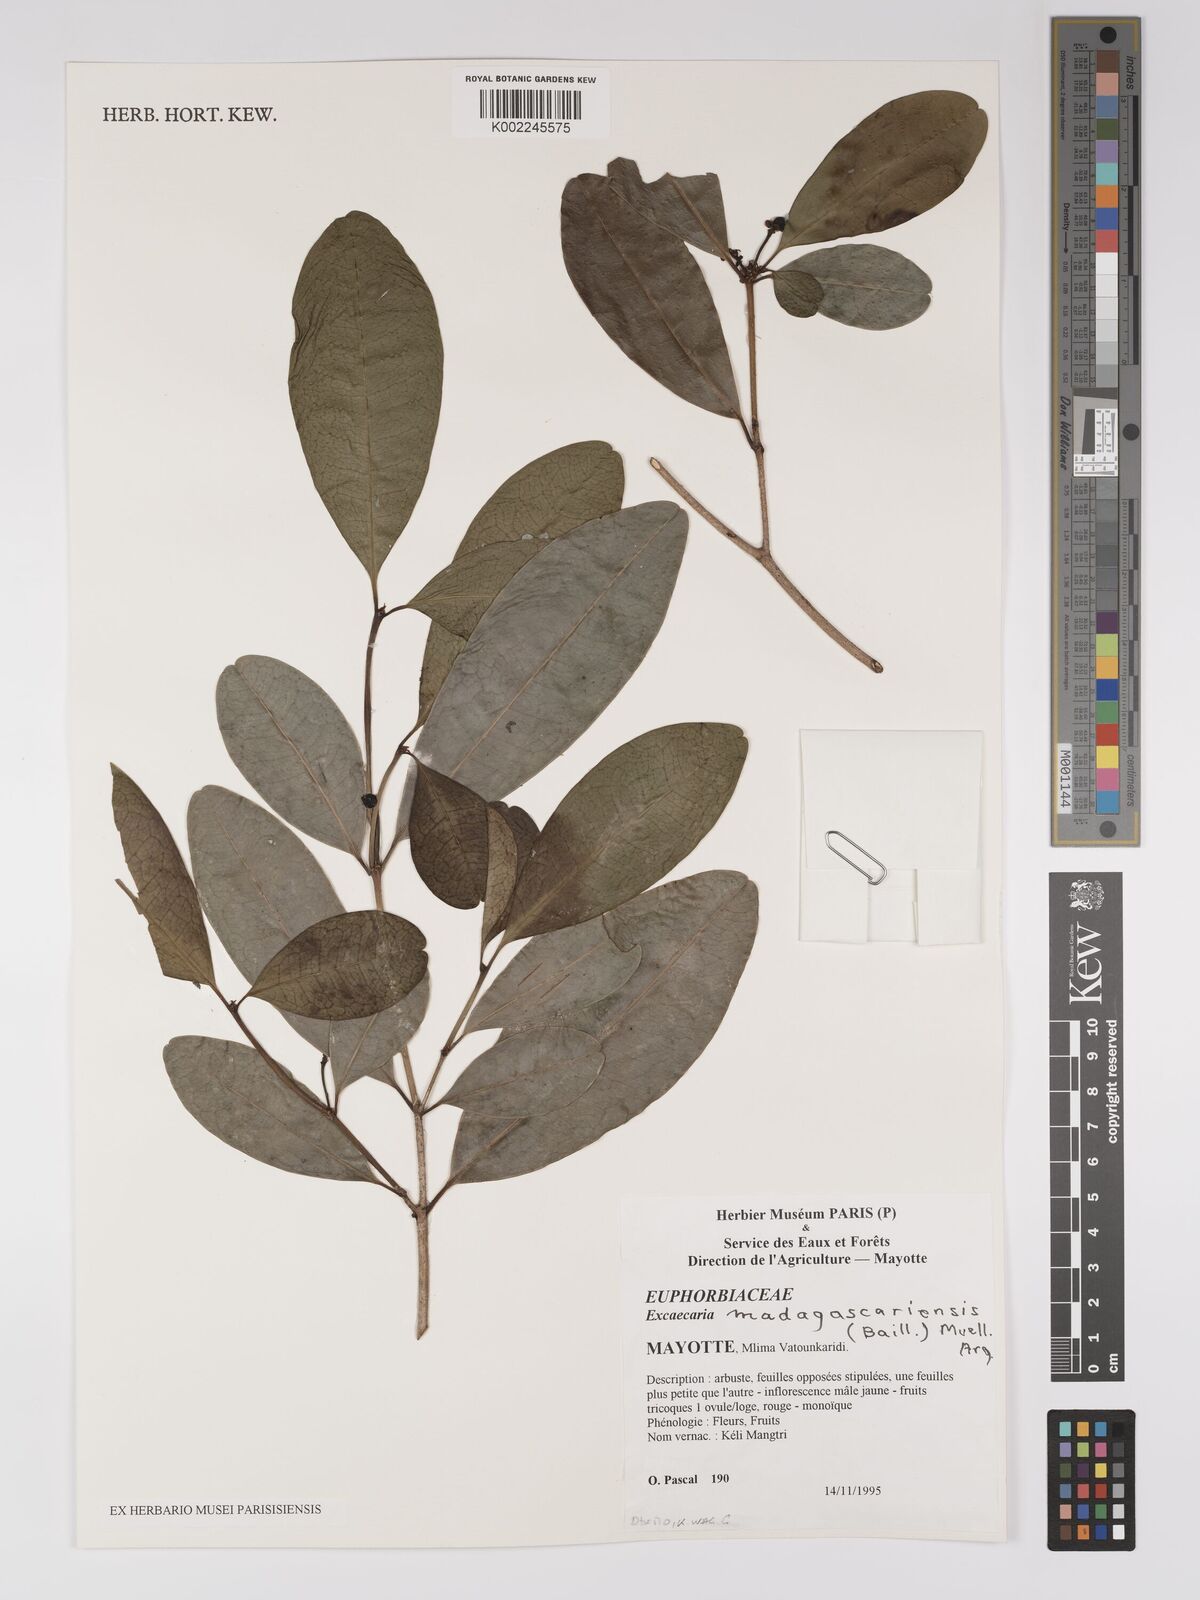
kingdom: Plantae
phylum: Tracheophyta
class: Magnoliopsida
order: Malpighiales
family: Euphorbiaceae
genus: Excoecaria
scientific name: Excoecaria madagascariensis
